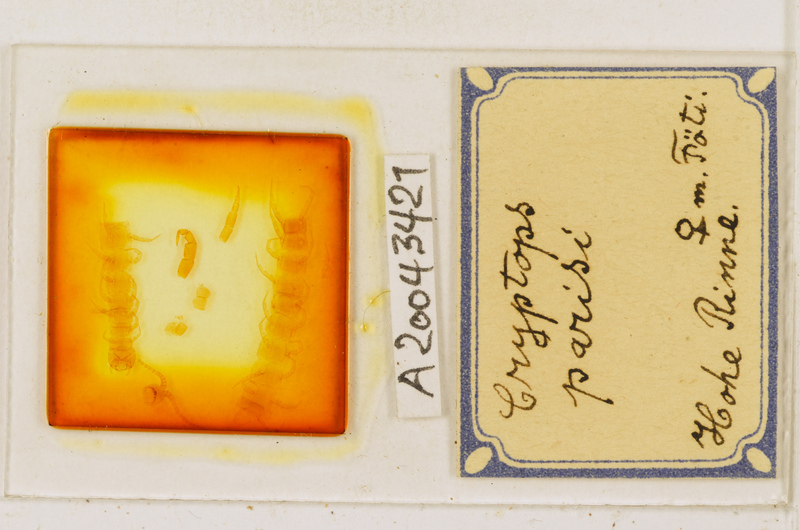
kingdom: Animalia
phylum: Arthropoda
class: Chilopoda
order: Scolopendromorpha
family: Cryptopidae
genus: Cryptops
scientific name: Cryptops parisi
